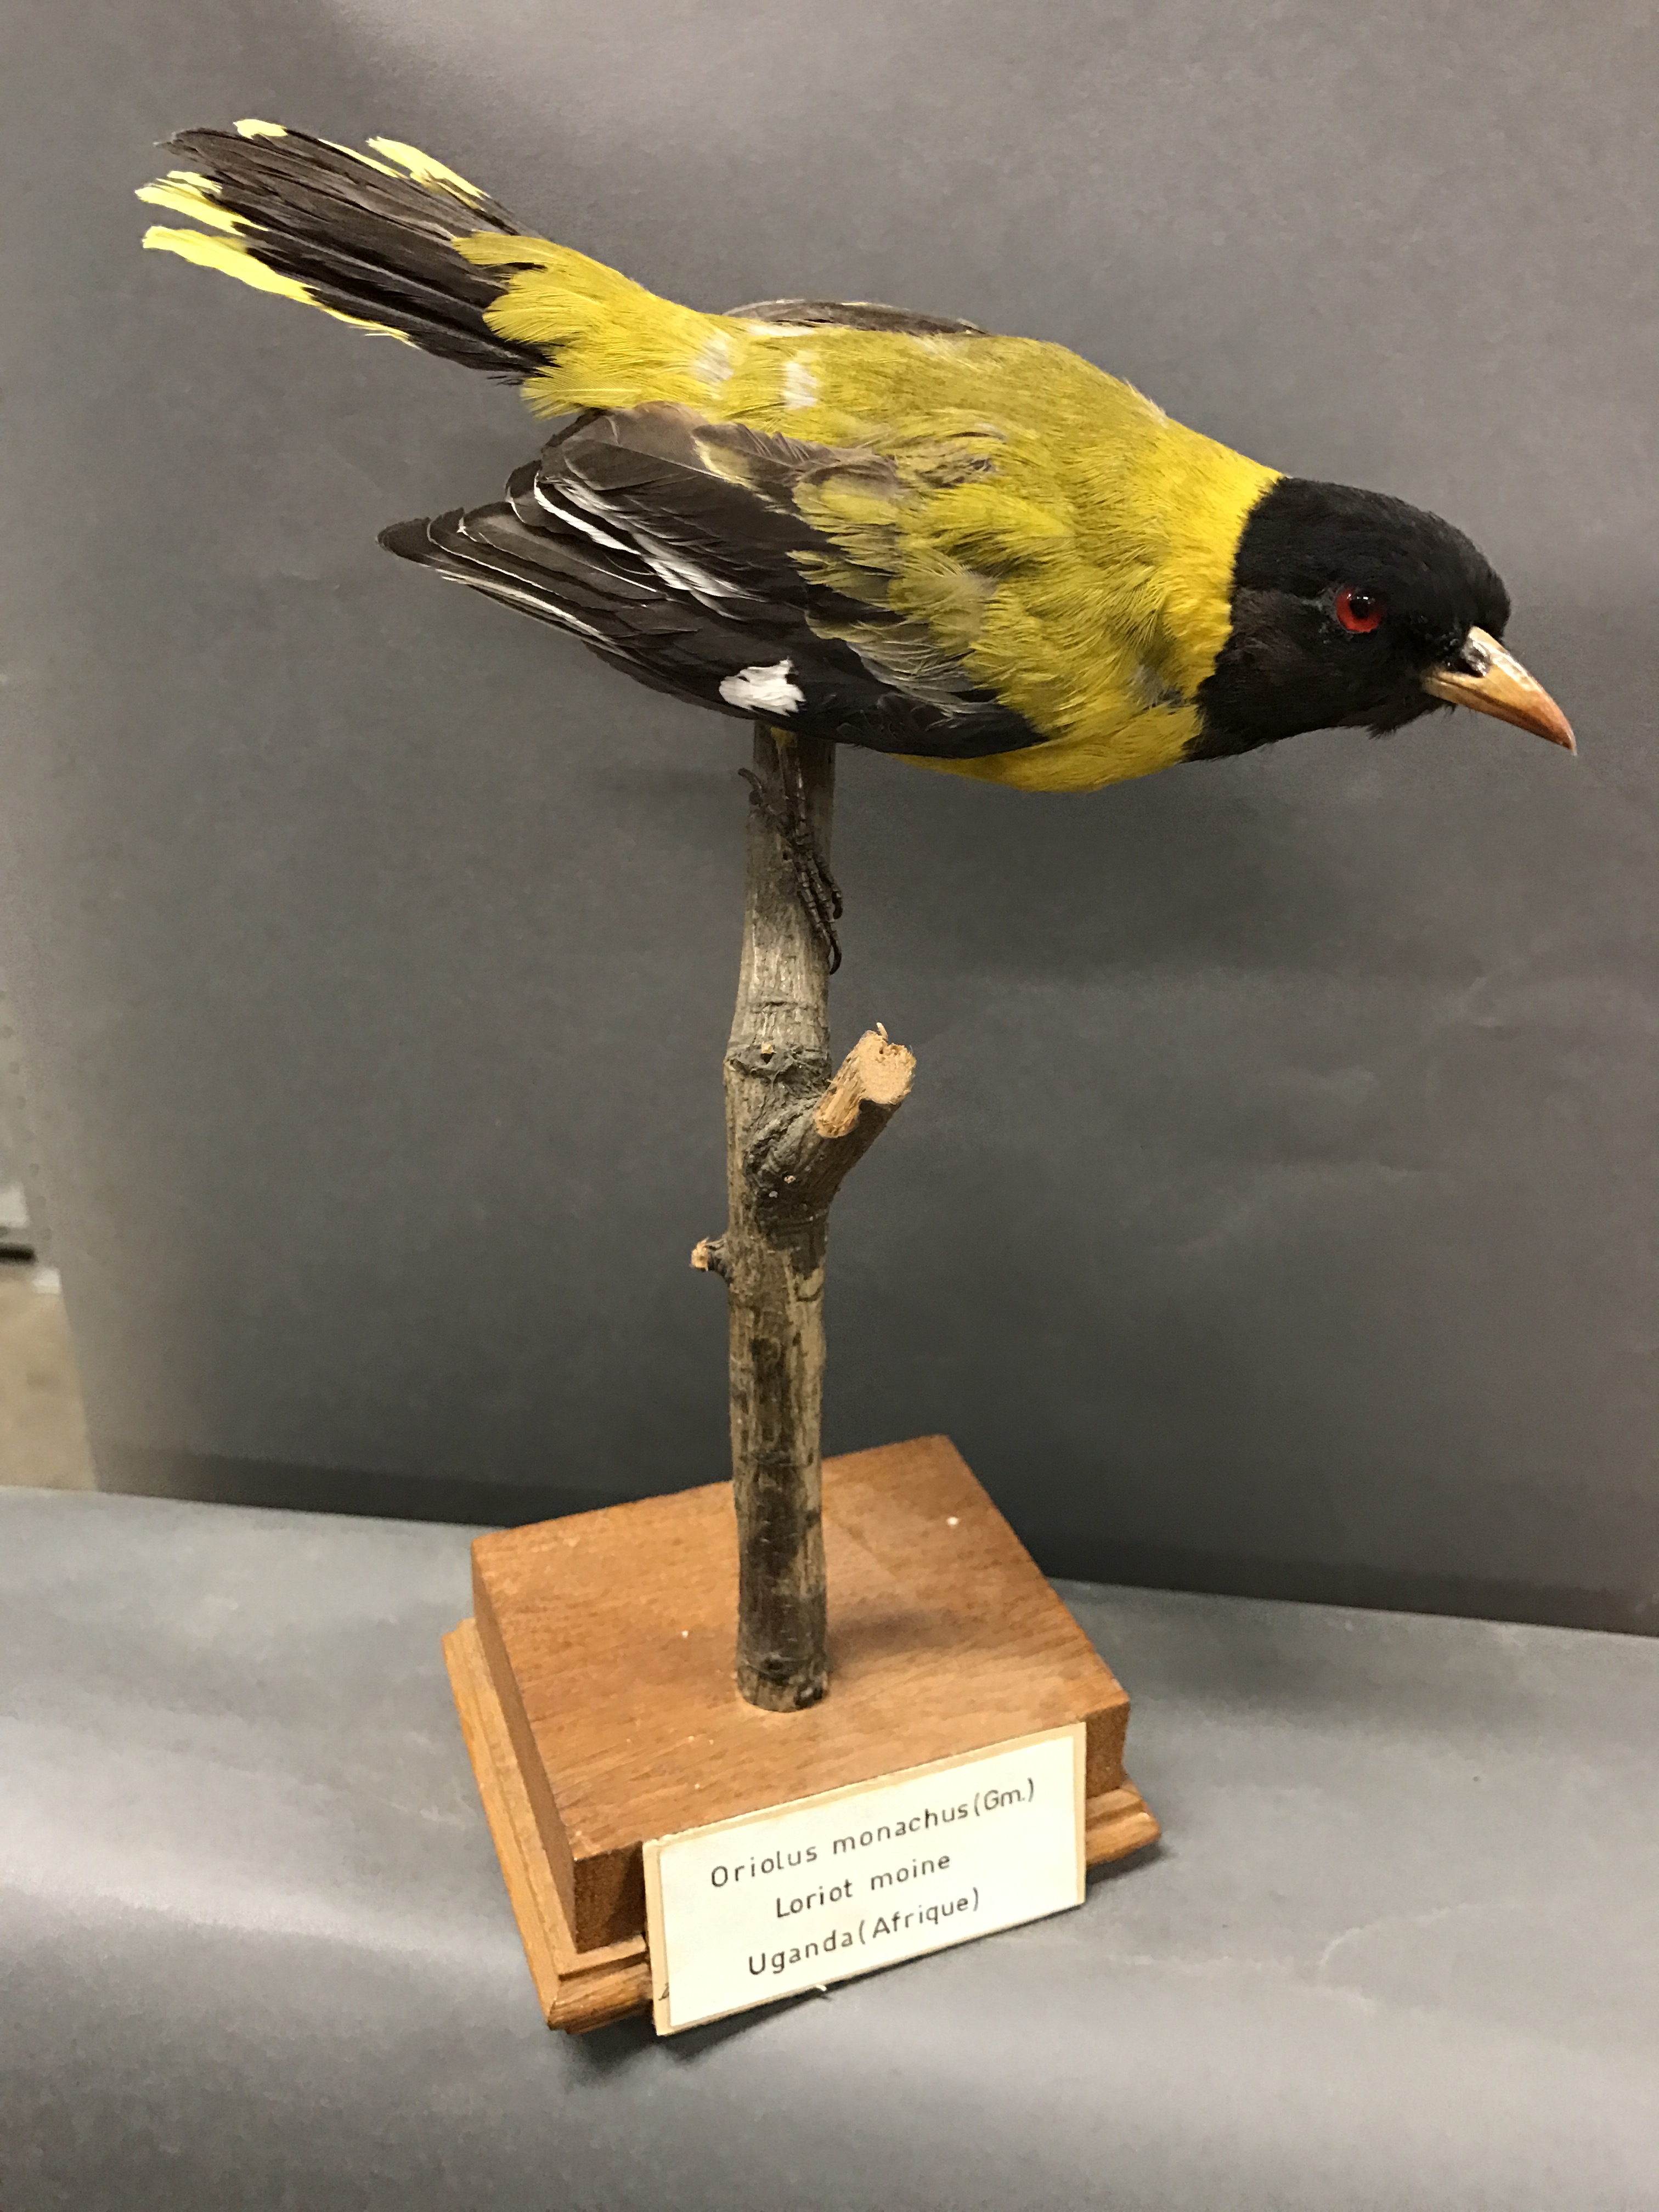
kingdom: Animalia
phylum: Chordata
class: Aves
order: Passeriformes
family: Oriolidae
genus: Oriolus
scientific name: Oriolus monacha
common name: Ethiopian oriole
